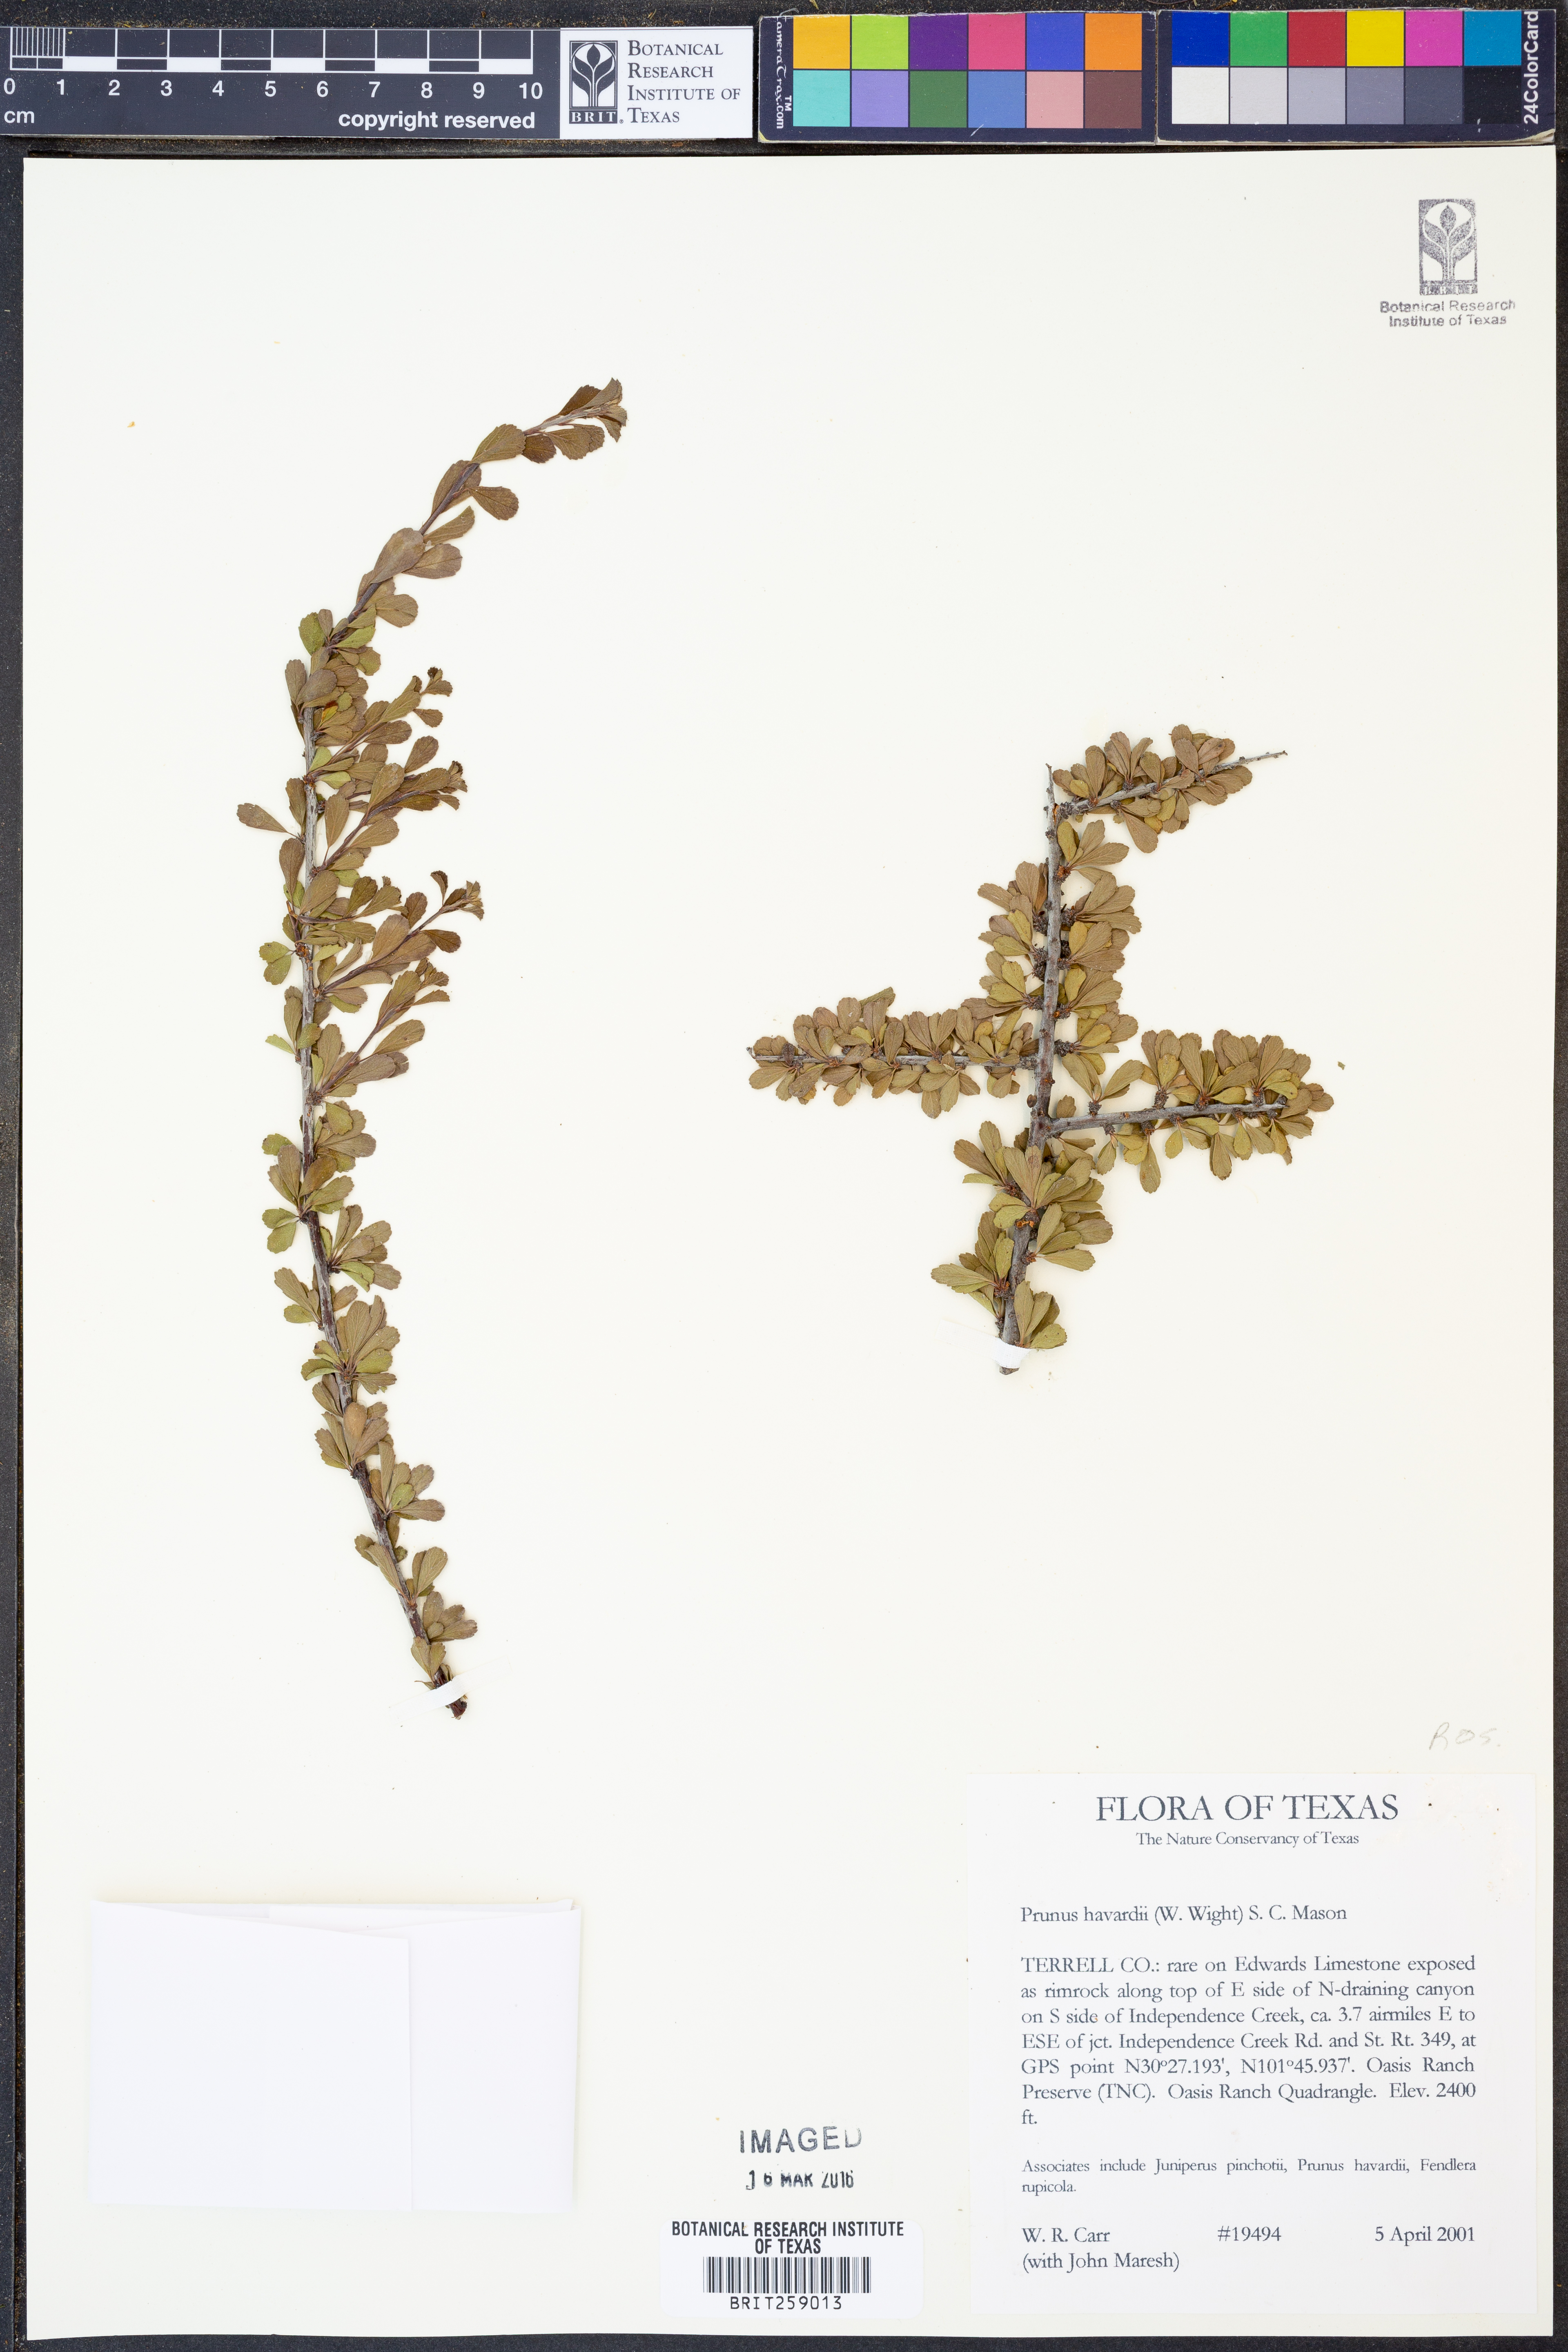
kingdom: Plantae
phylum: Tracheophyta
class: Magnoliopsida
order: Rosales
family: Rosaceae
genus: Prunus
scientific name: Prunus havardii
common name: Havard plum
